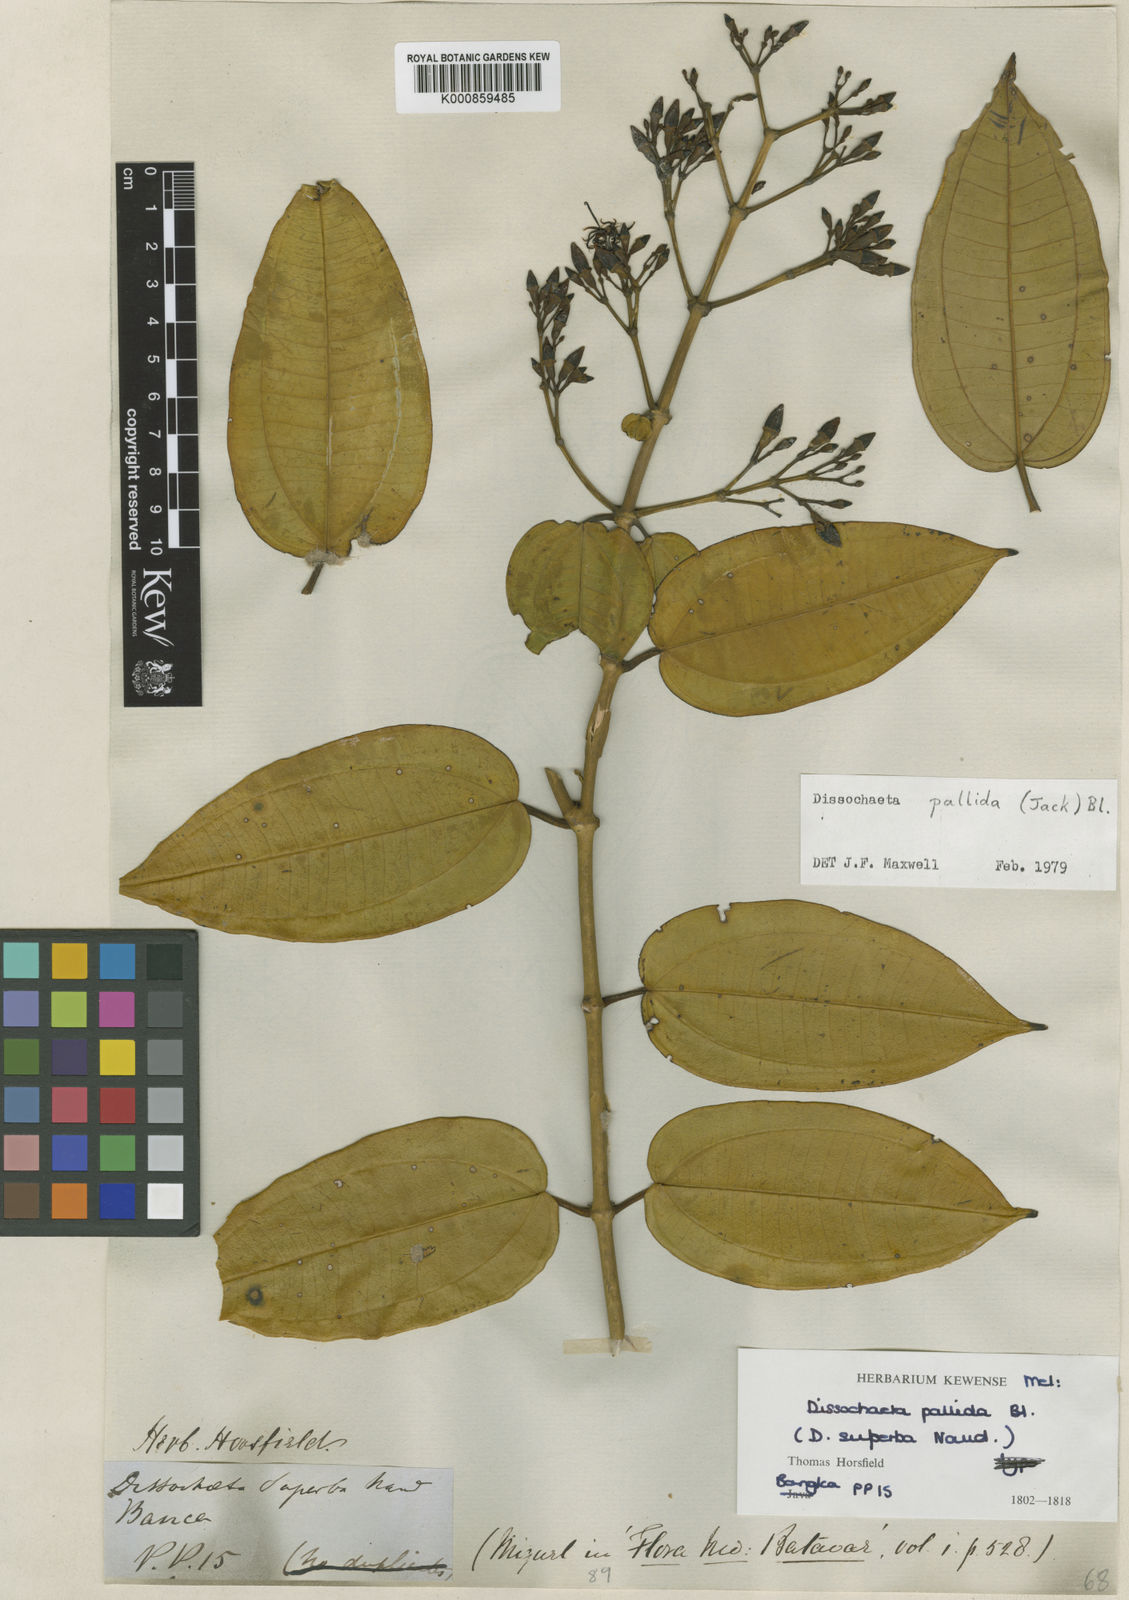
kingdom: Plantae
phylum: Tracheophyta
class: Magnoliopsida
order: Myrtales
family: Melastomataceae
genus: Dissochaeta
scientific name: Dissochaeta pallida
